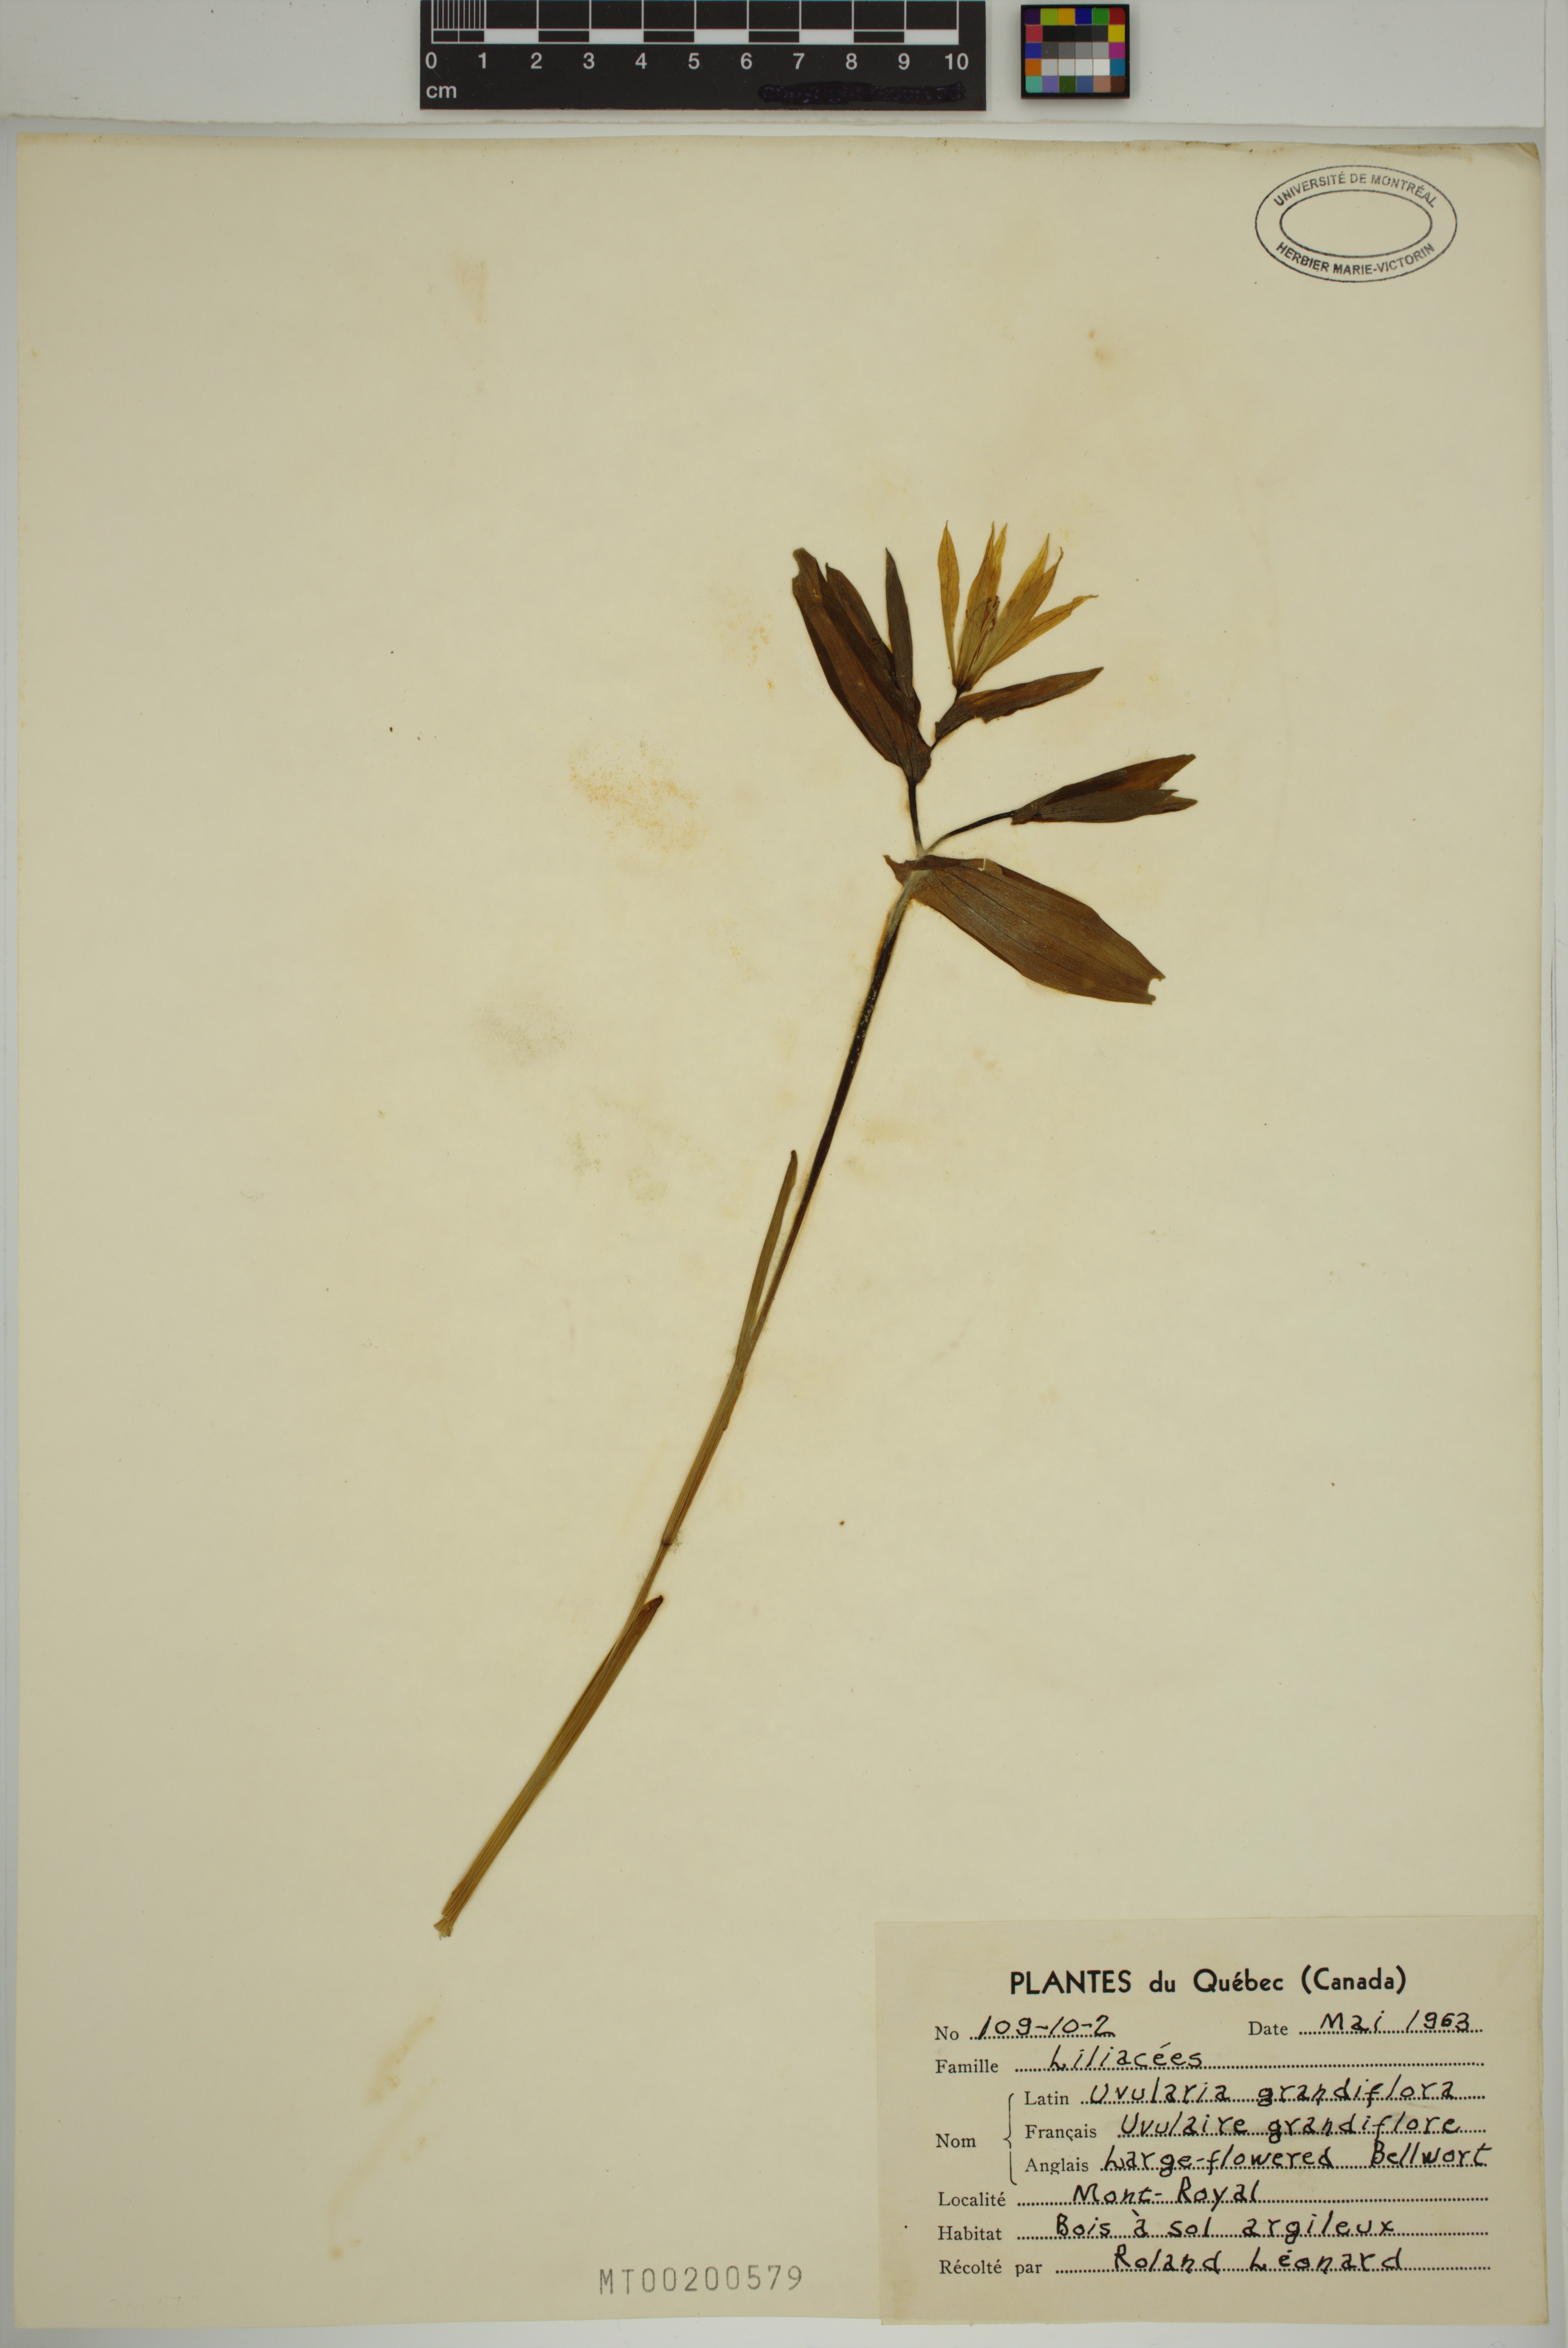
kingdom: Plantae
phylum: Tracheophyta
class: Liliopsida
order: Liliales
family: Colchicaceae
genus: Uvularia
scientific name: Uvularia grandiflora
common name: Bellwort
